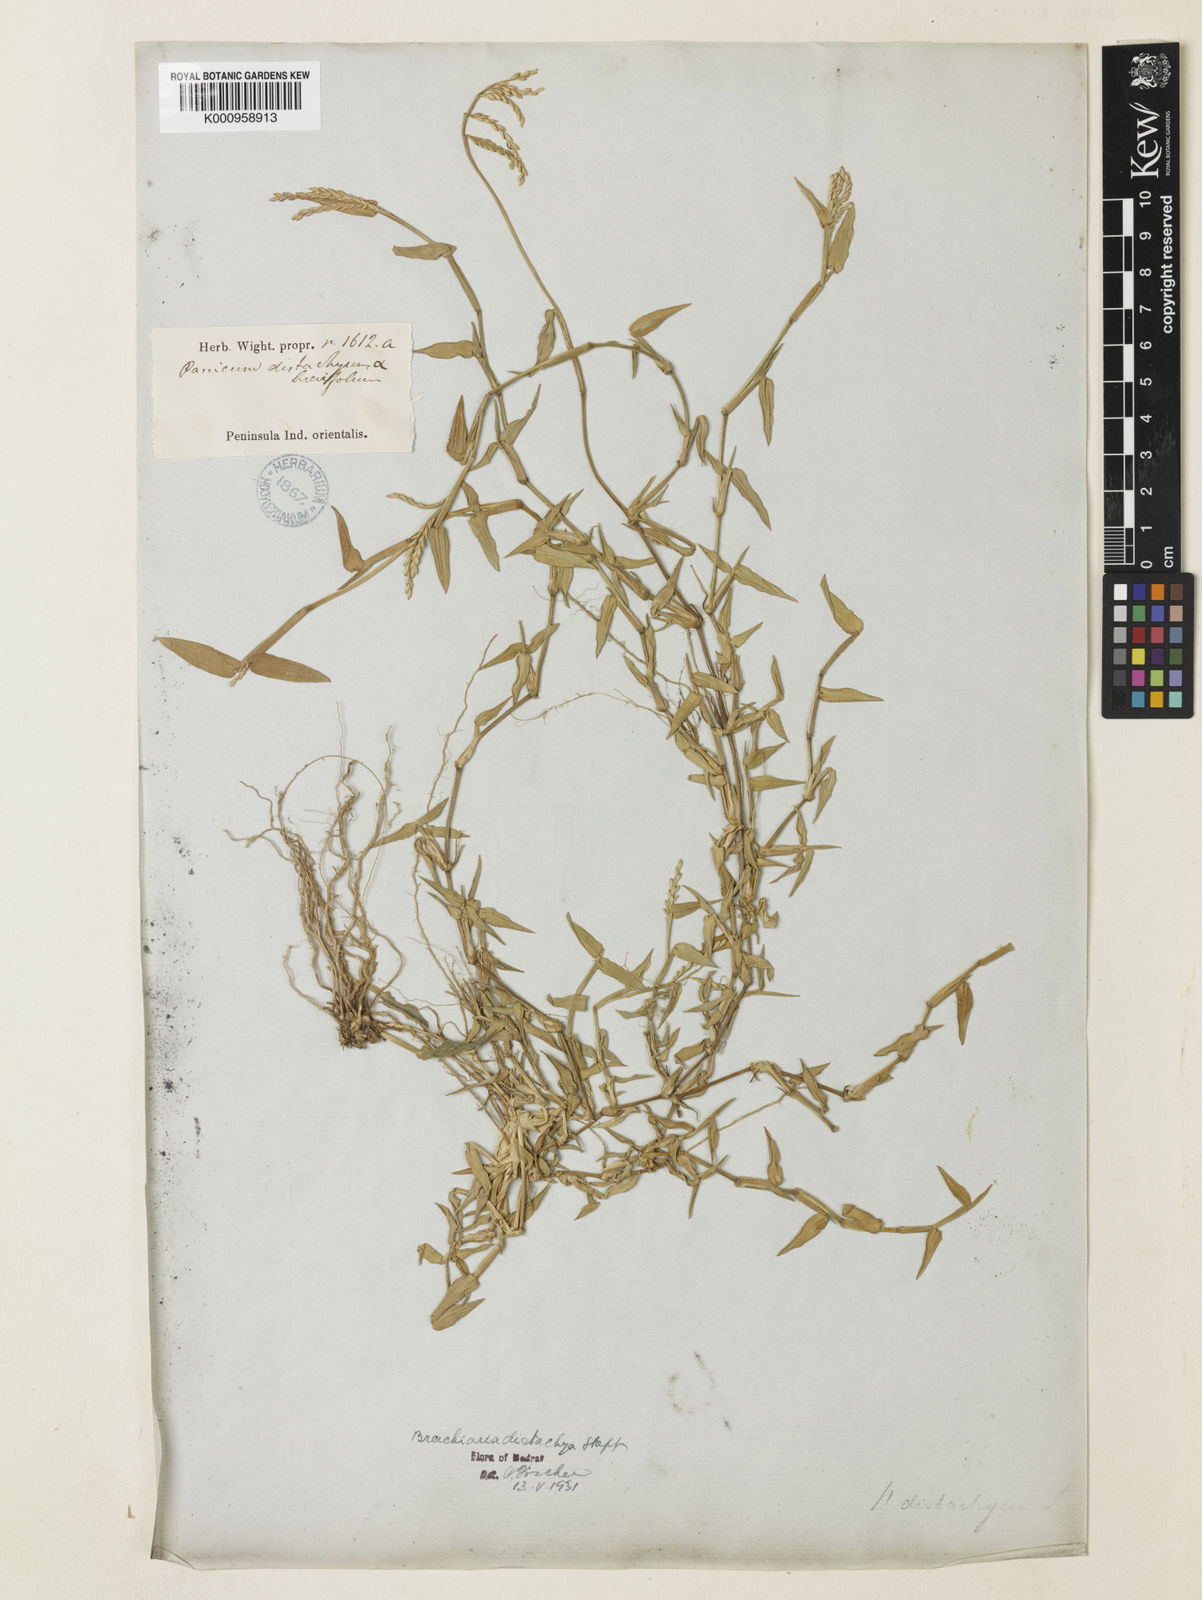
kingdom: Plantae
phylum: Tracheophyta
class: Liliopsida
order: Poales
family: Poaceae
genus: Urochloa
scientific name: Urochloa distachyos
